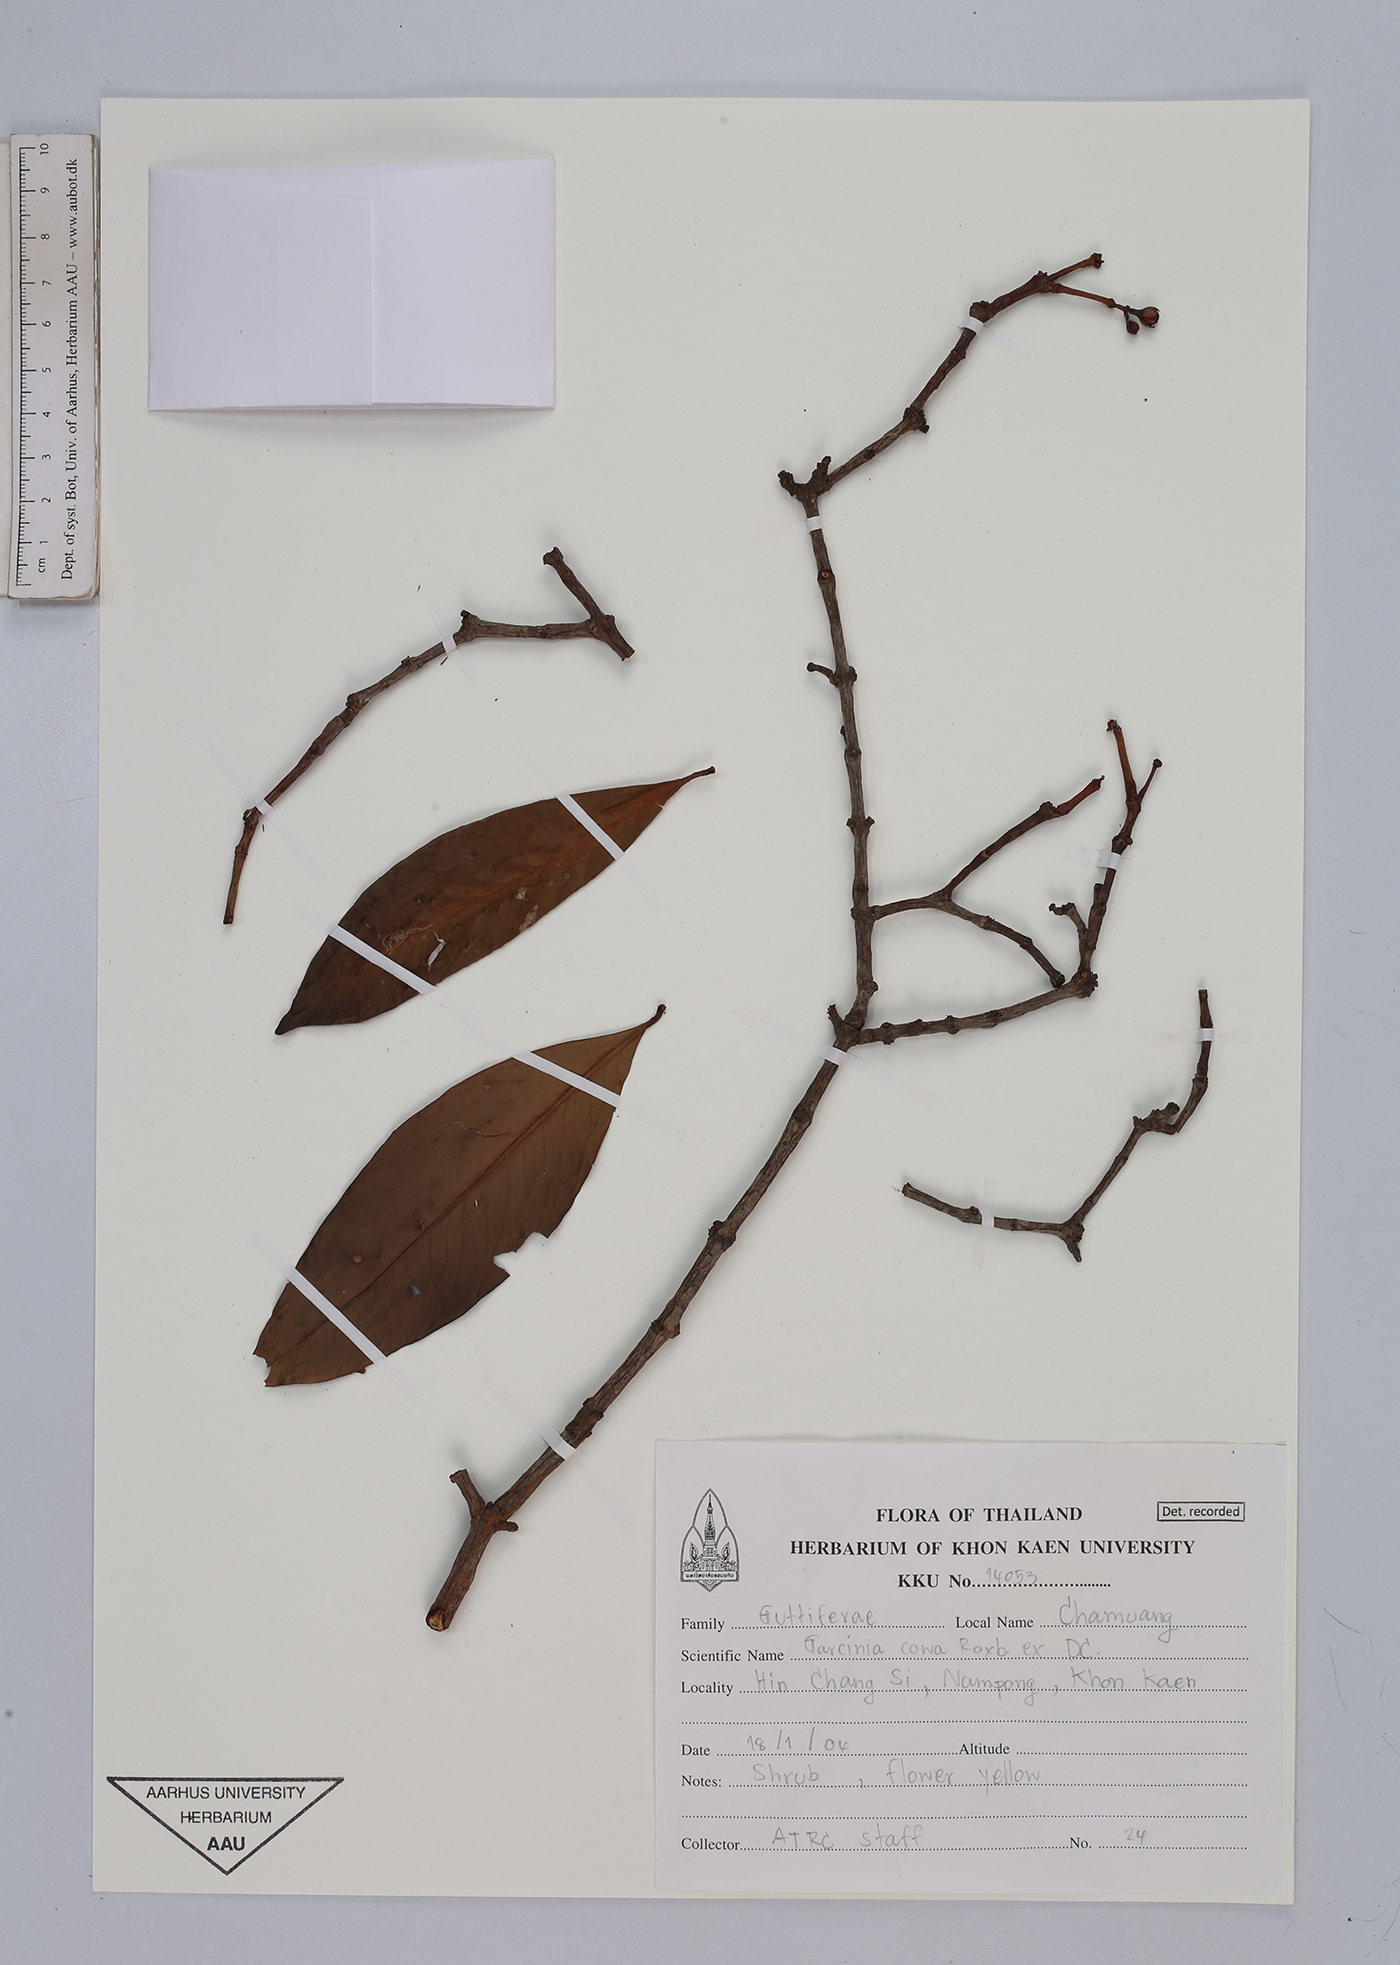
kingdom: Plantae
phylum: Tracheophyta
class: Magnoliopsida
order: Malpighiales
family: Clusiaceae
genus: Garcinia
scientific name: Garcinia cowa
